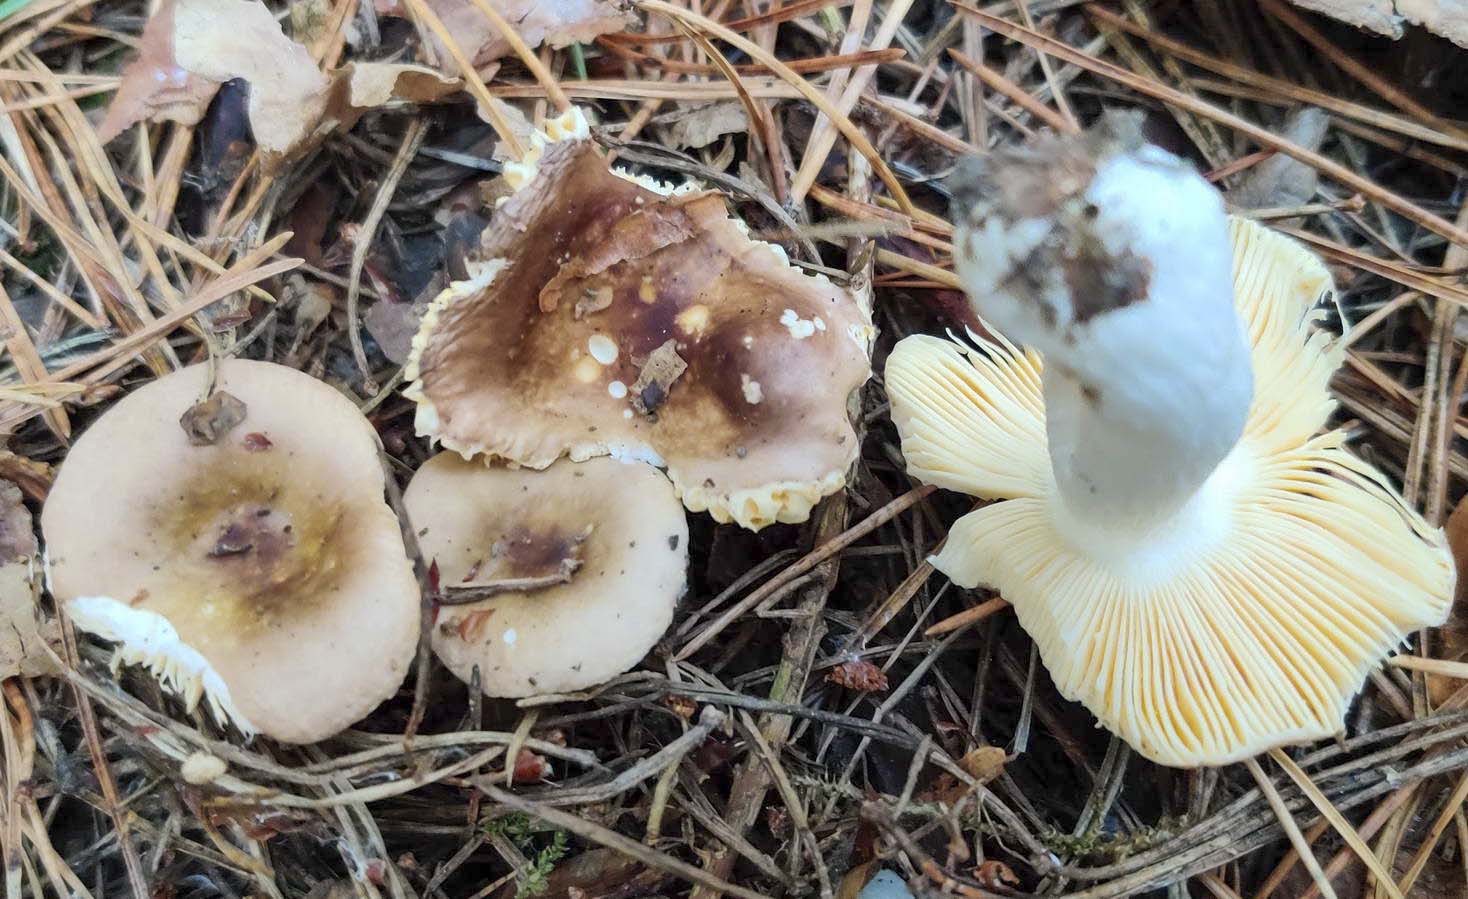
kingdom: Fungi
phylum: Basidiomycota
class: Agaricomycetes
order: Russulales
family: Russulaceae
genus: Russula
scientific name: Russula cessans
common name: fyrre-skørhat
